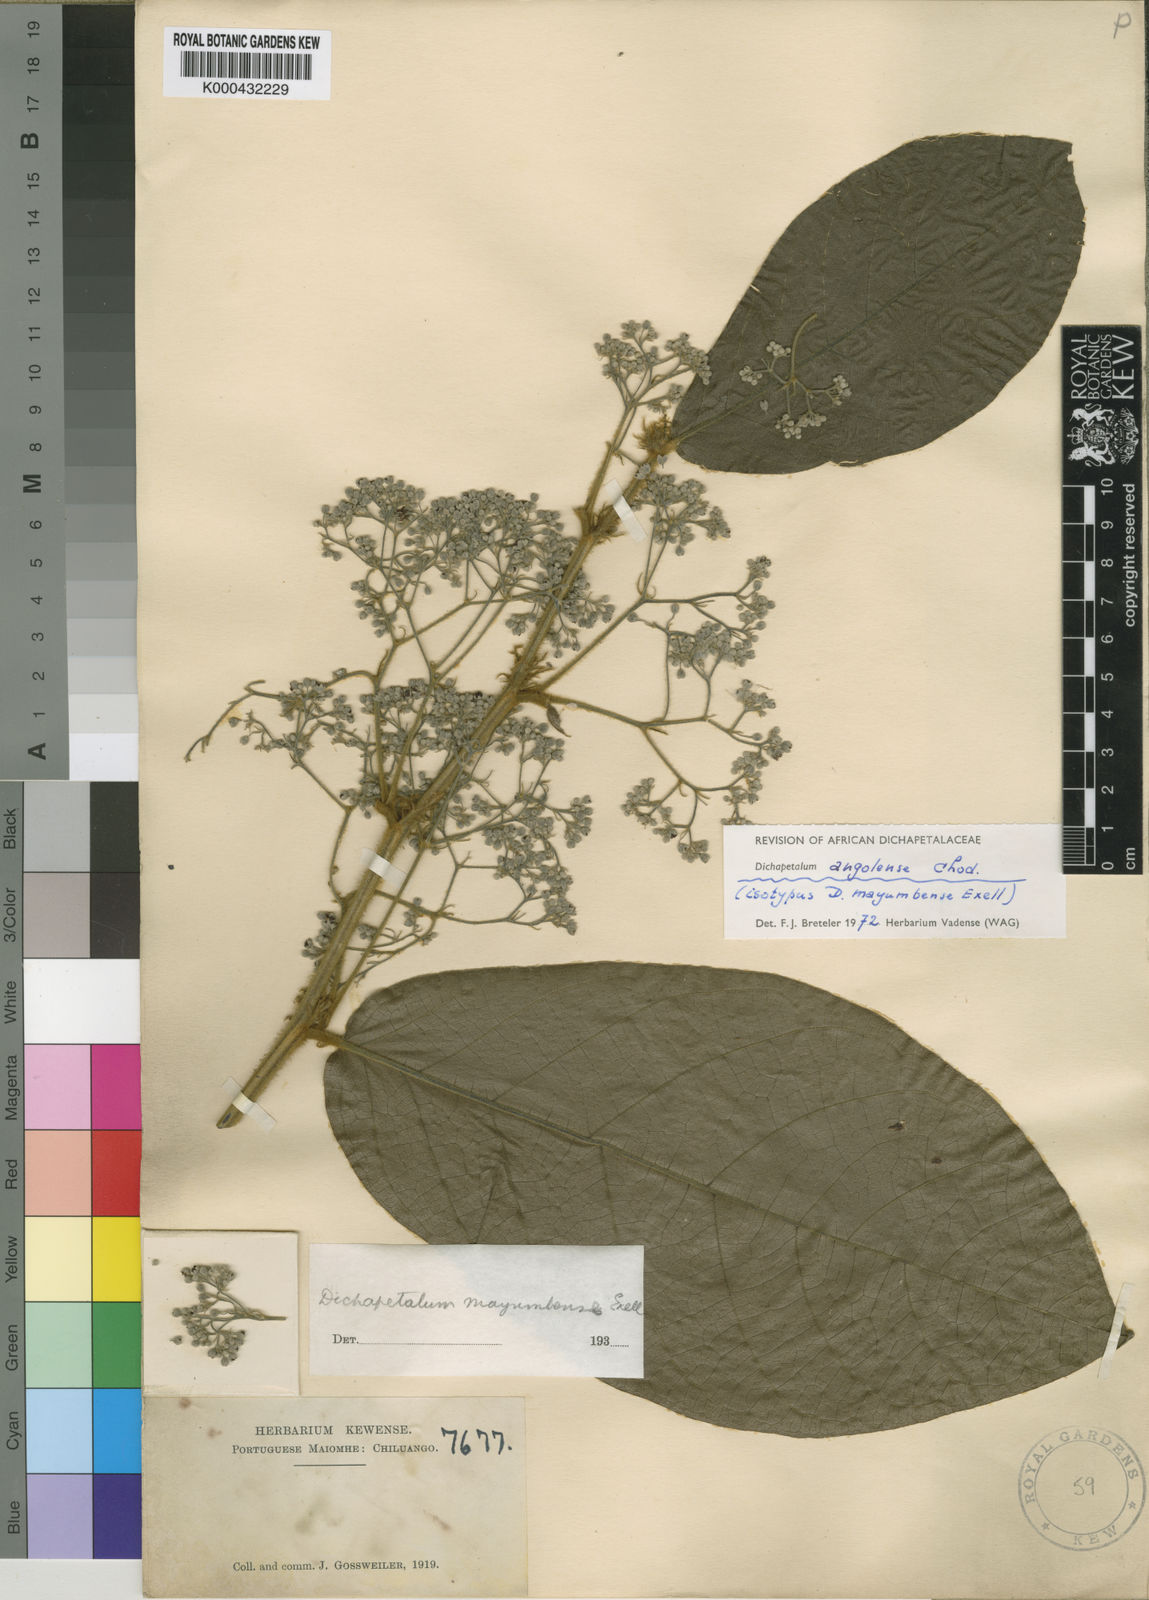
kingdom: Plantae
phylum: Tracheophyta
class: Magnoliopsida
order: Malpighiales
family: Dichapetalaceae
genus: Dichapetalum
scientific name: Dichapetalum angolense
